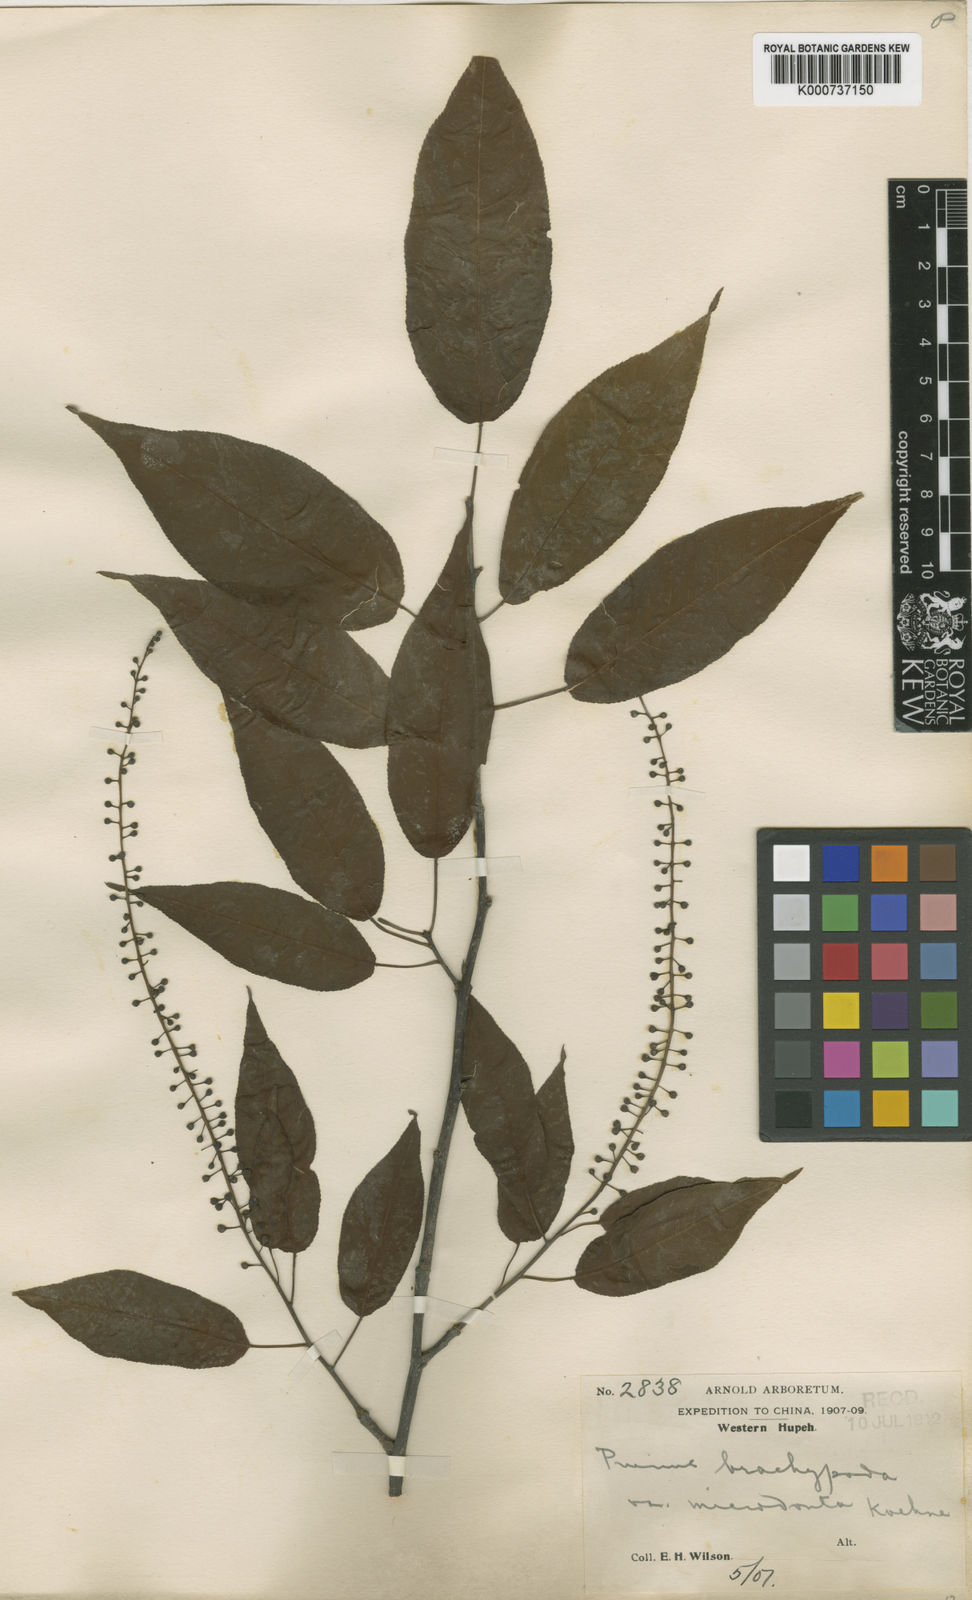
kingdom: Plantae
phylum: Tracheophyta
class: Magnoliopsida
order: Rosales
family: Rosaceae
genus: Prunus
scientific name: Prunus brachypoda
